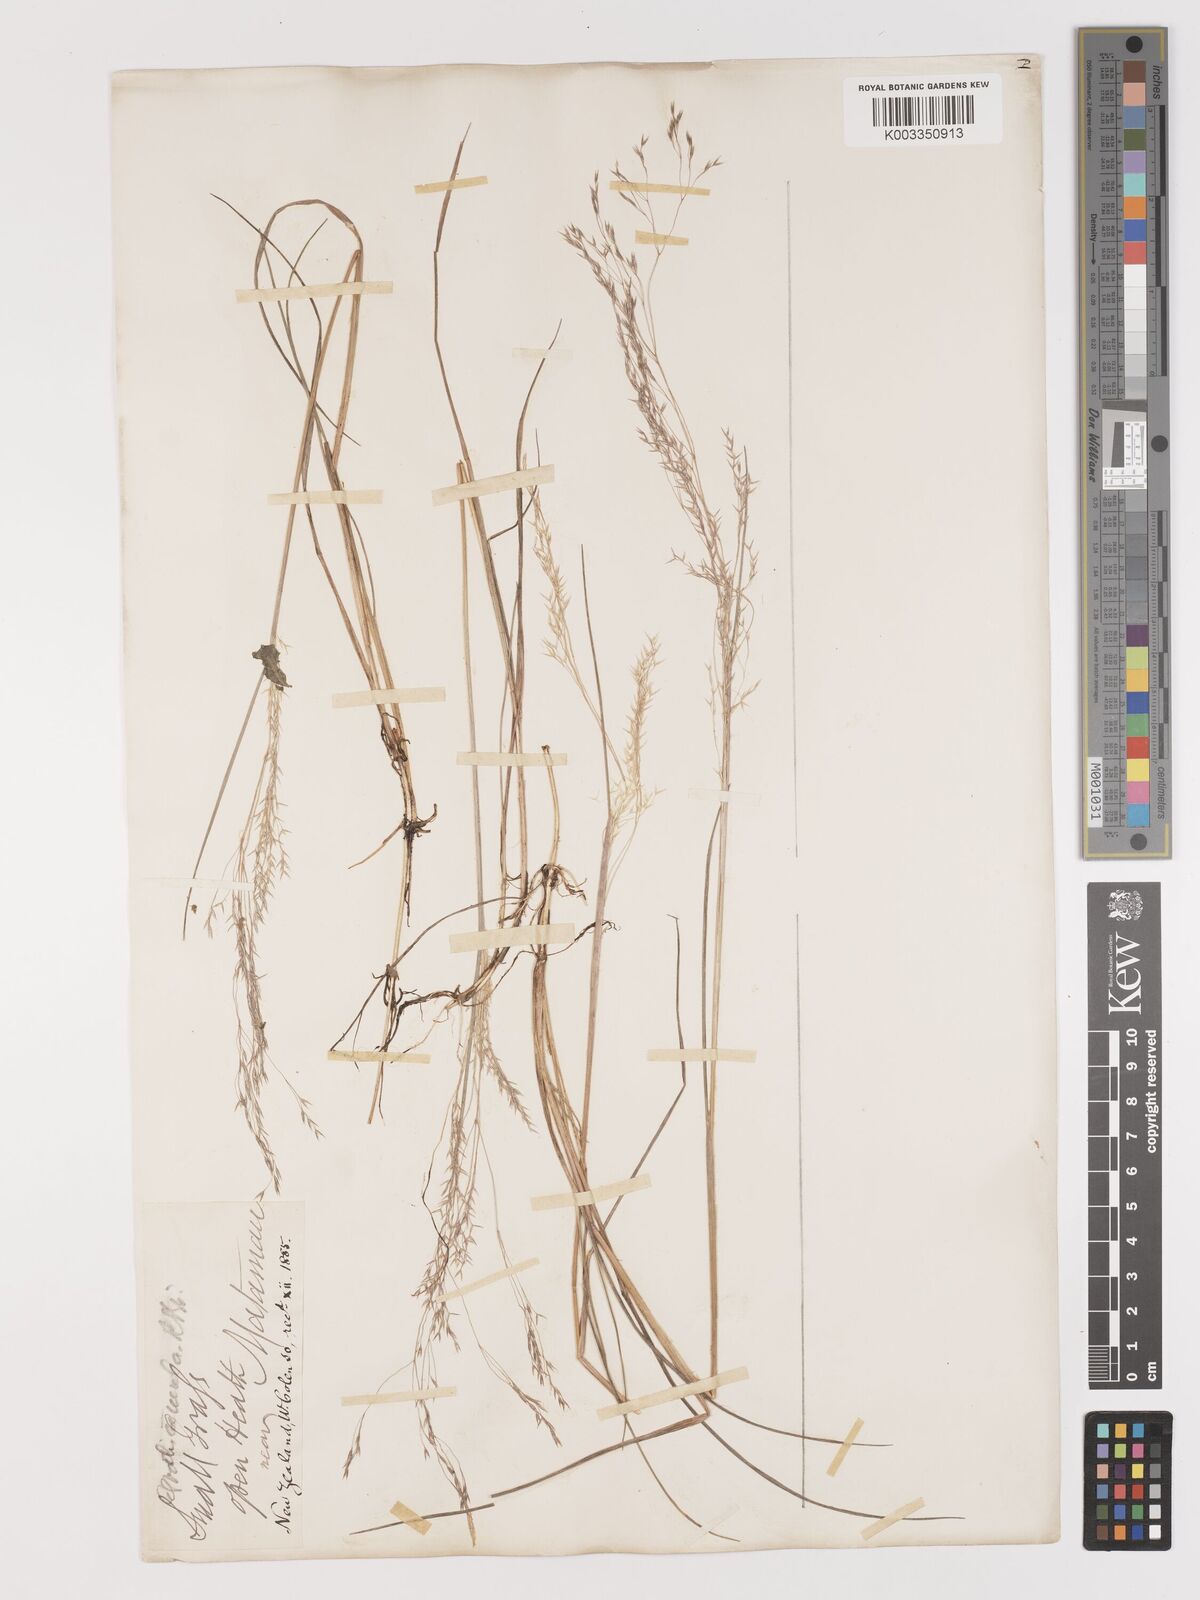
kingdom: Plantae
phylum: Tracheophyta
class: Liliopsida
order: Poales
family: Poaceae
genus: Lachnagrostis
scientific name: Lachnagrostis filiformis
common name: Bentgrass
